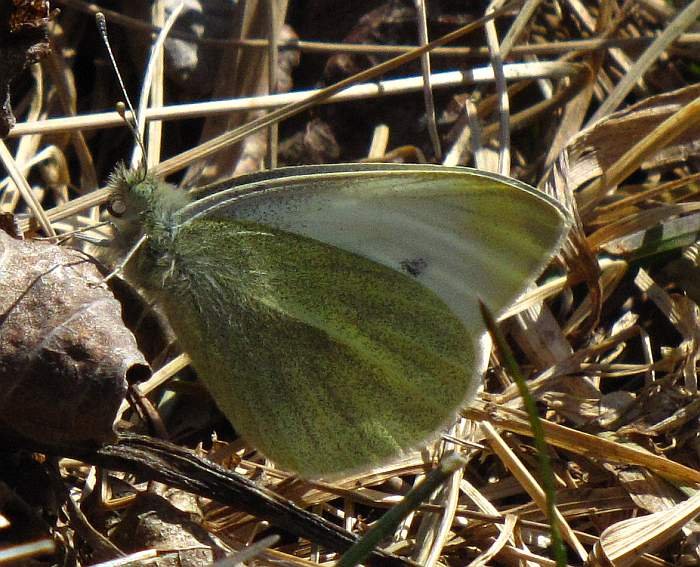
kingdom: Animalia
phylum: Arthropoda
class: Insecta
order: Lepidoptera
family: Pieridae
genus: Pieris
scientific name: Pieris rapae
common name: Cabbage White
